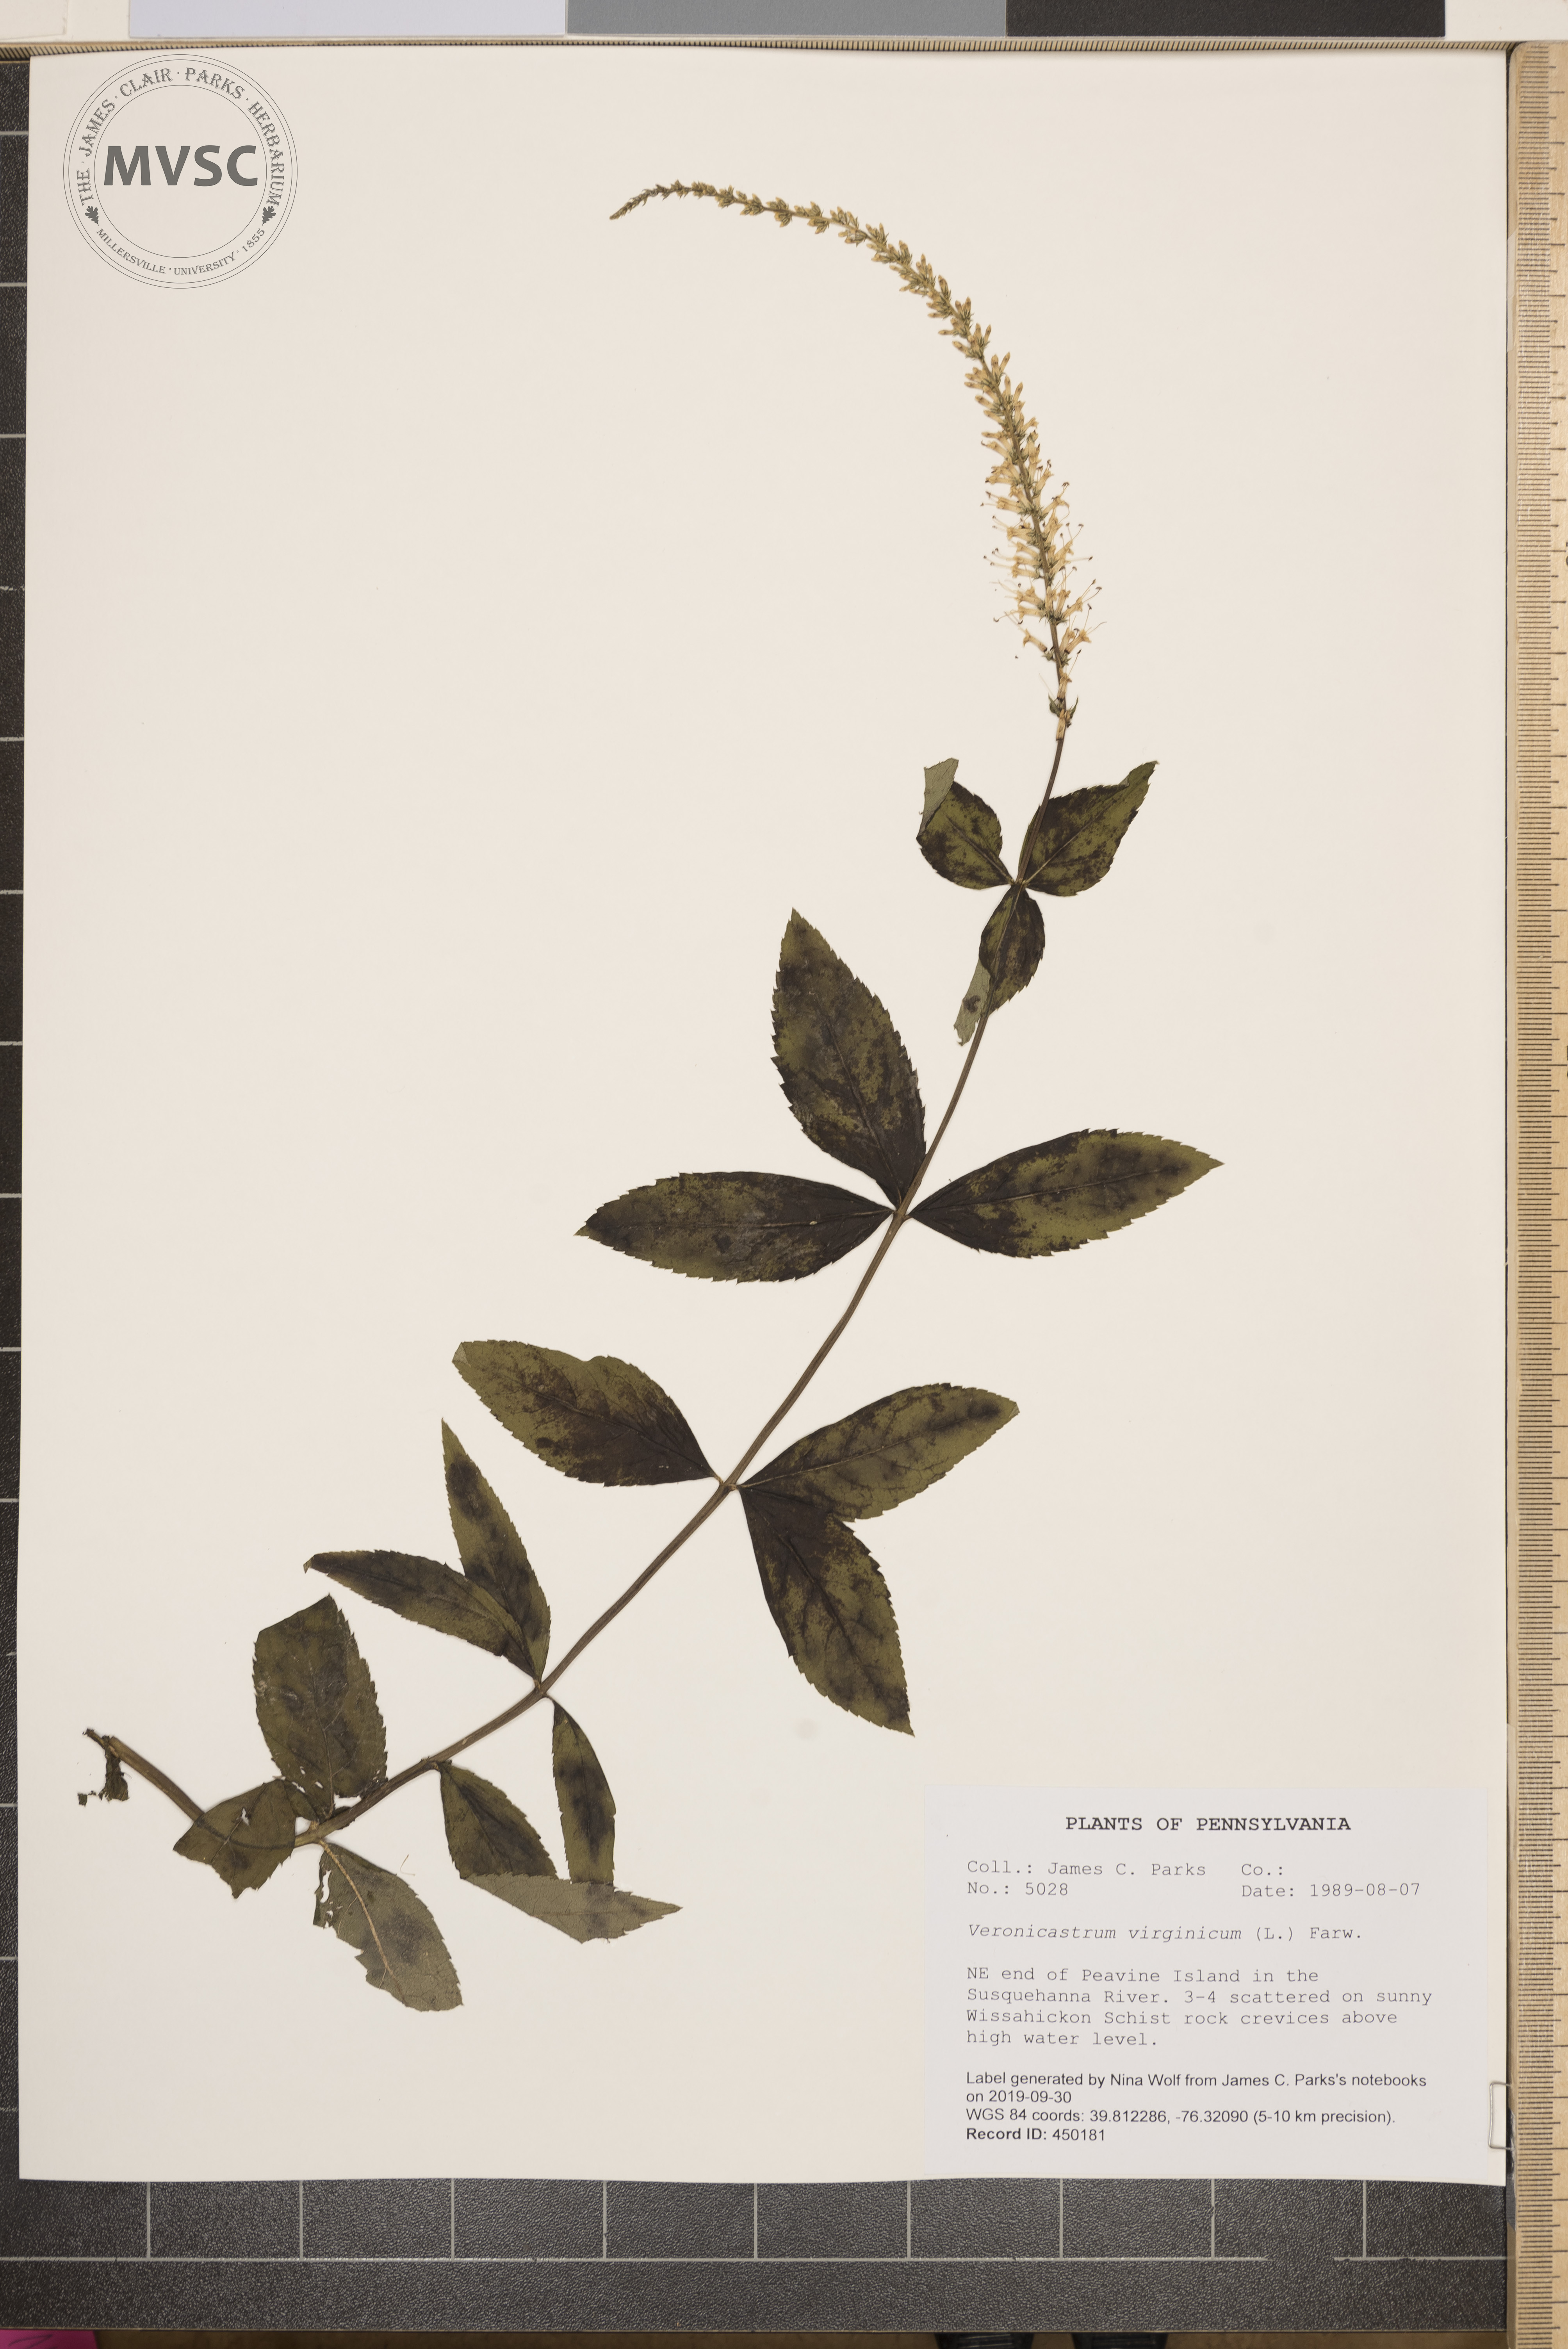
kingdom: Plantae
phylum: Tracheophyta
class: Magnoliopsida
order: Lamiales
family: Plantaginaceae
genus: Veronicastrum
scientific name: Veronicastrum virginicum
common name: Blackroot
